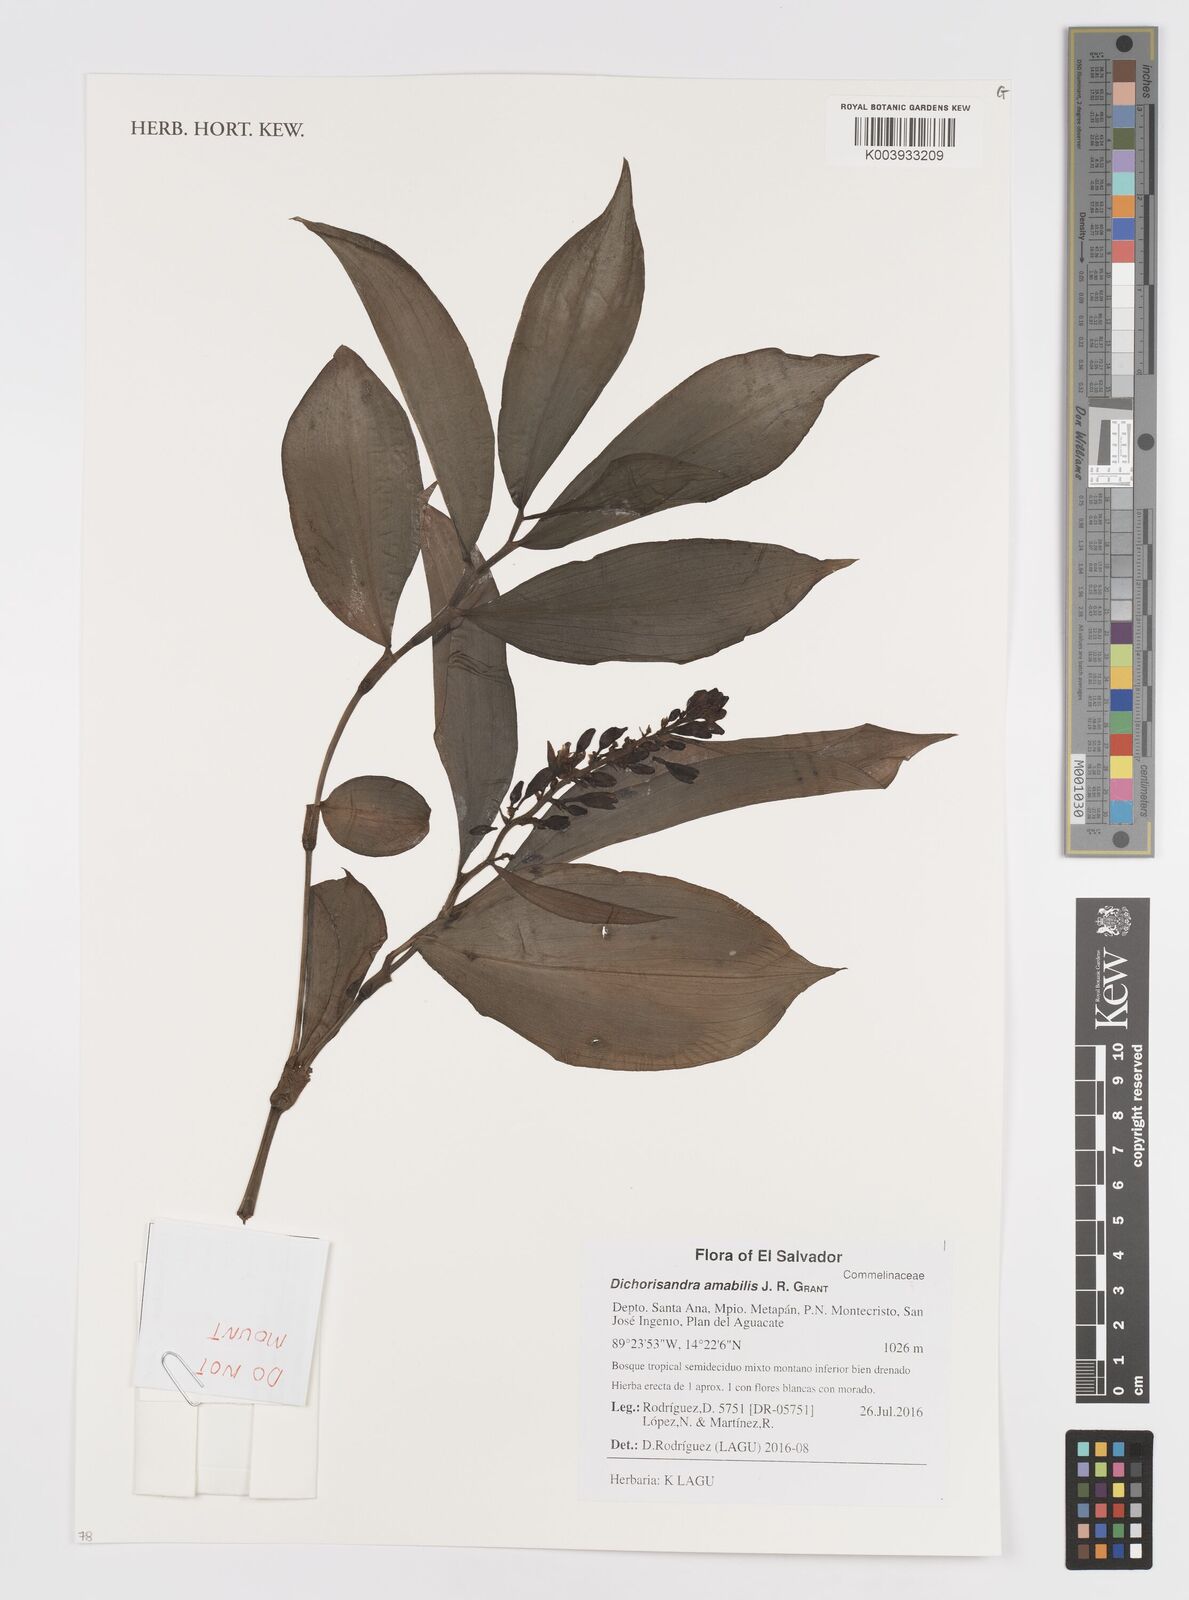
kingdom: Plantae
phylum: Tracheophyta
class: Liliopsida
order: Commelinales
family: Commelinaceae
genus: Dichorisandra
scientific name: Dichorisandra amabilis
